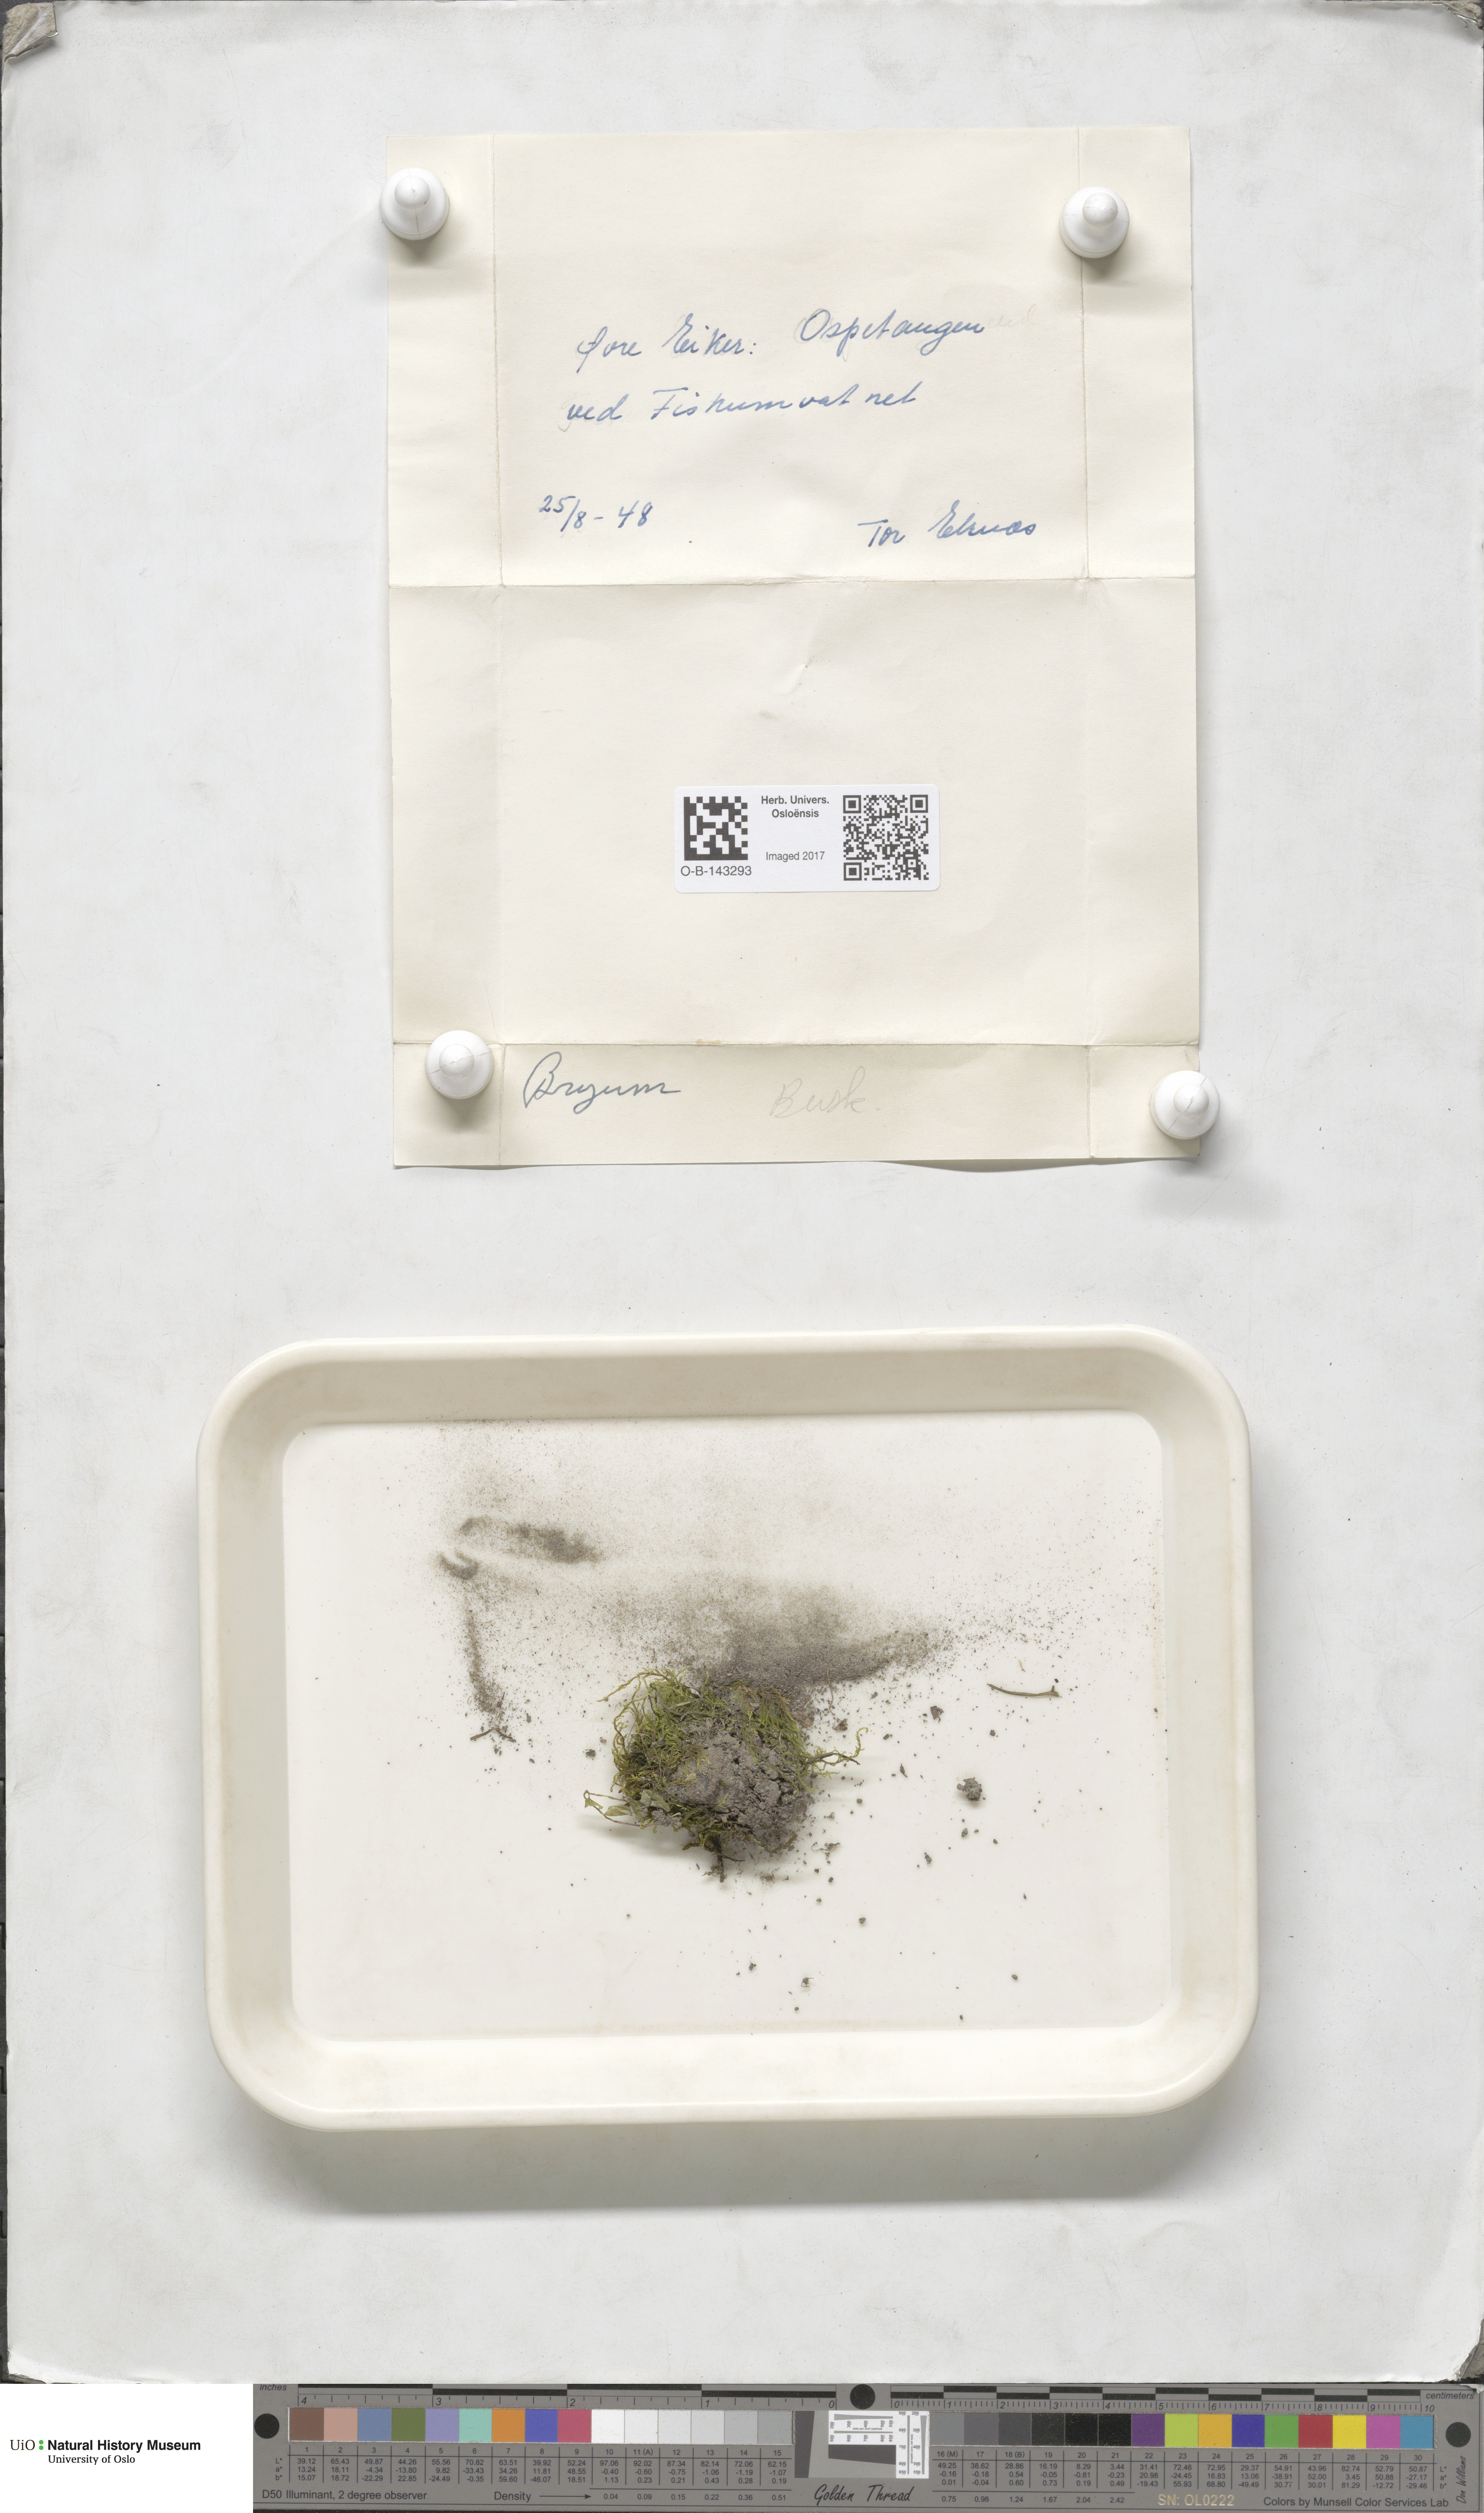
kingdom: Plantae
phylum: Bryophyta
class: Bryopsida
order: Bryales
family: Bryaceae
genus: Bryum
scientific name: Bryum
